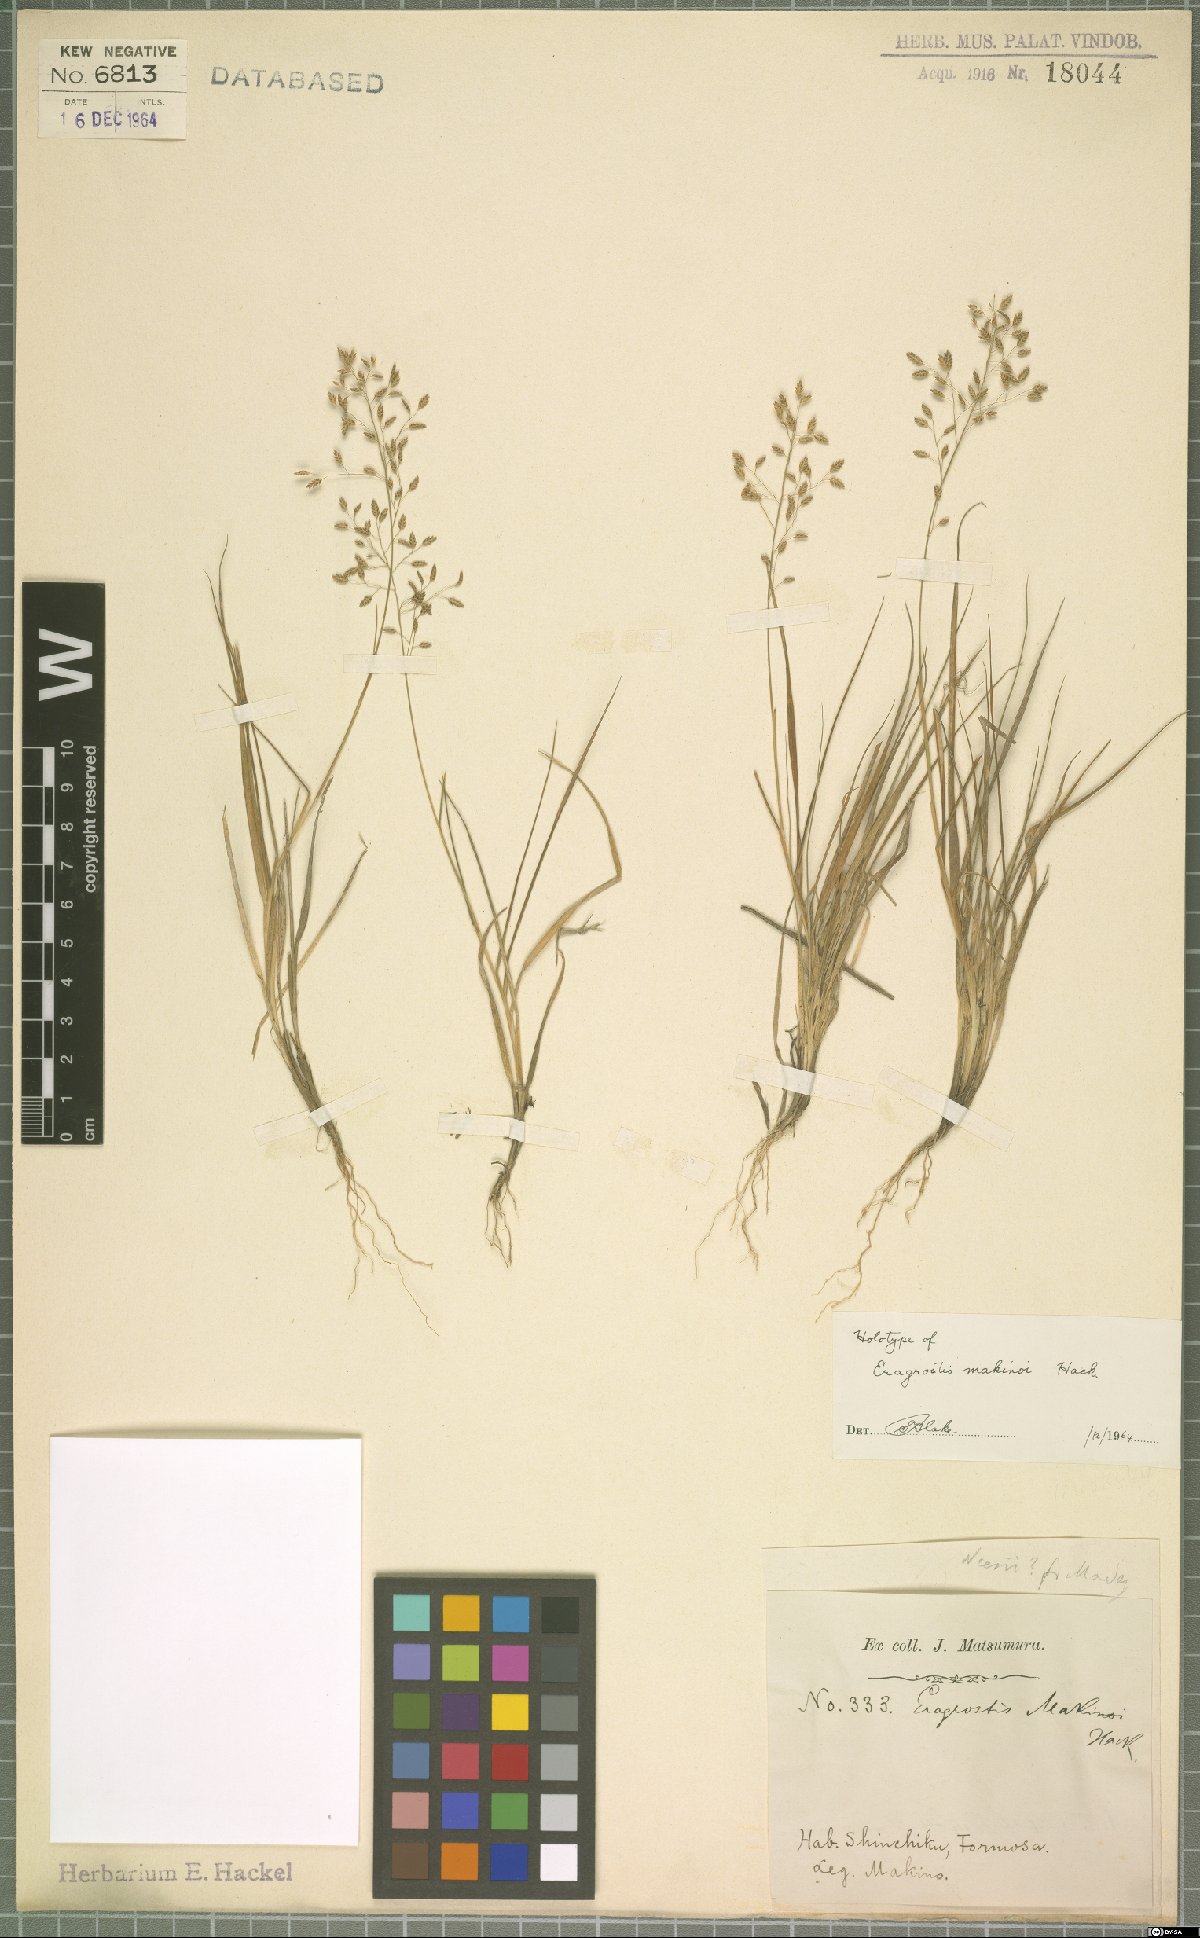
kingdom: Plantae
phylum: Tracheophyta
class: Liliopsida
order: Poales
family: Poaceae
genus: Eragrostis
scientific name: Eragrostis pilosissima
